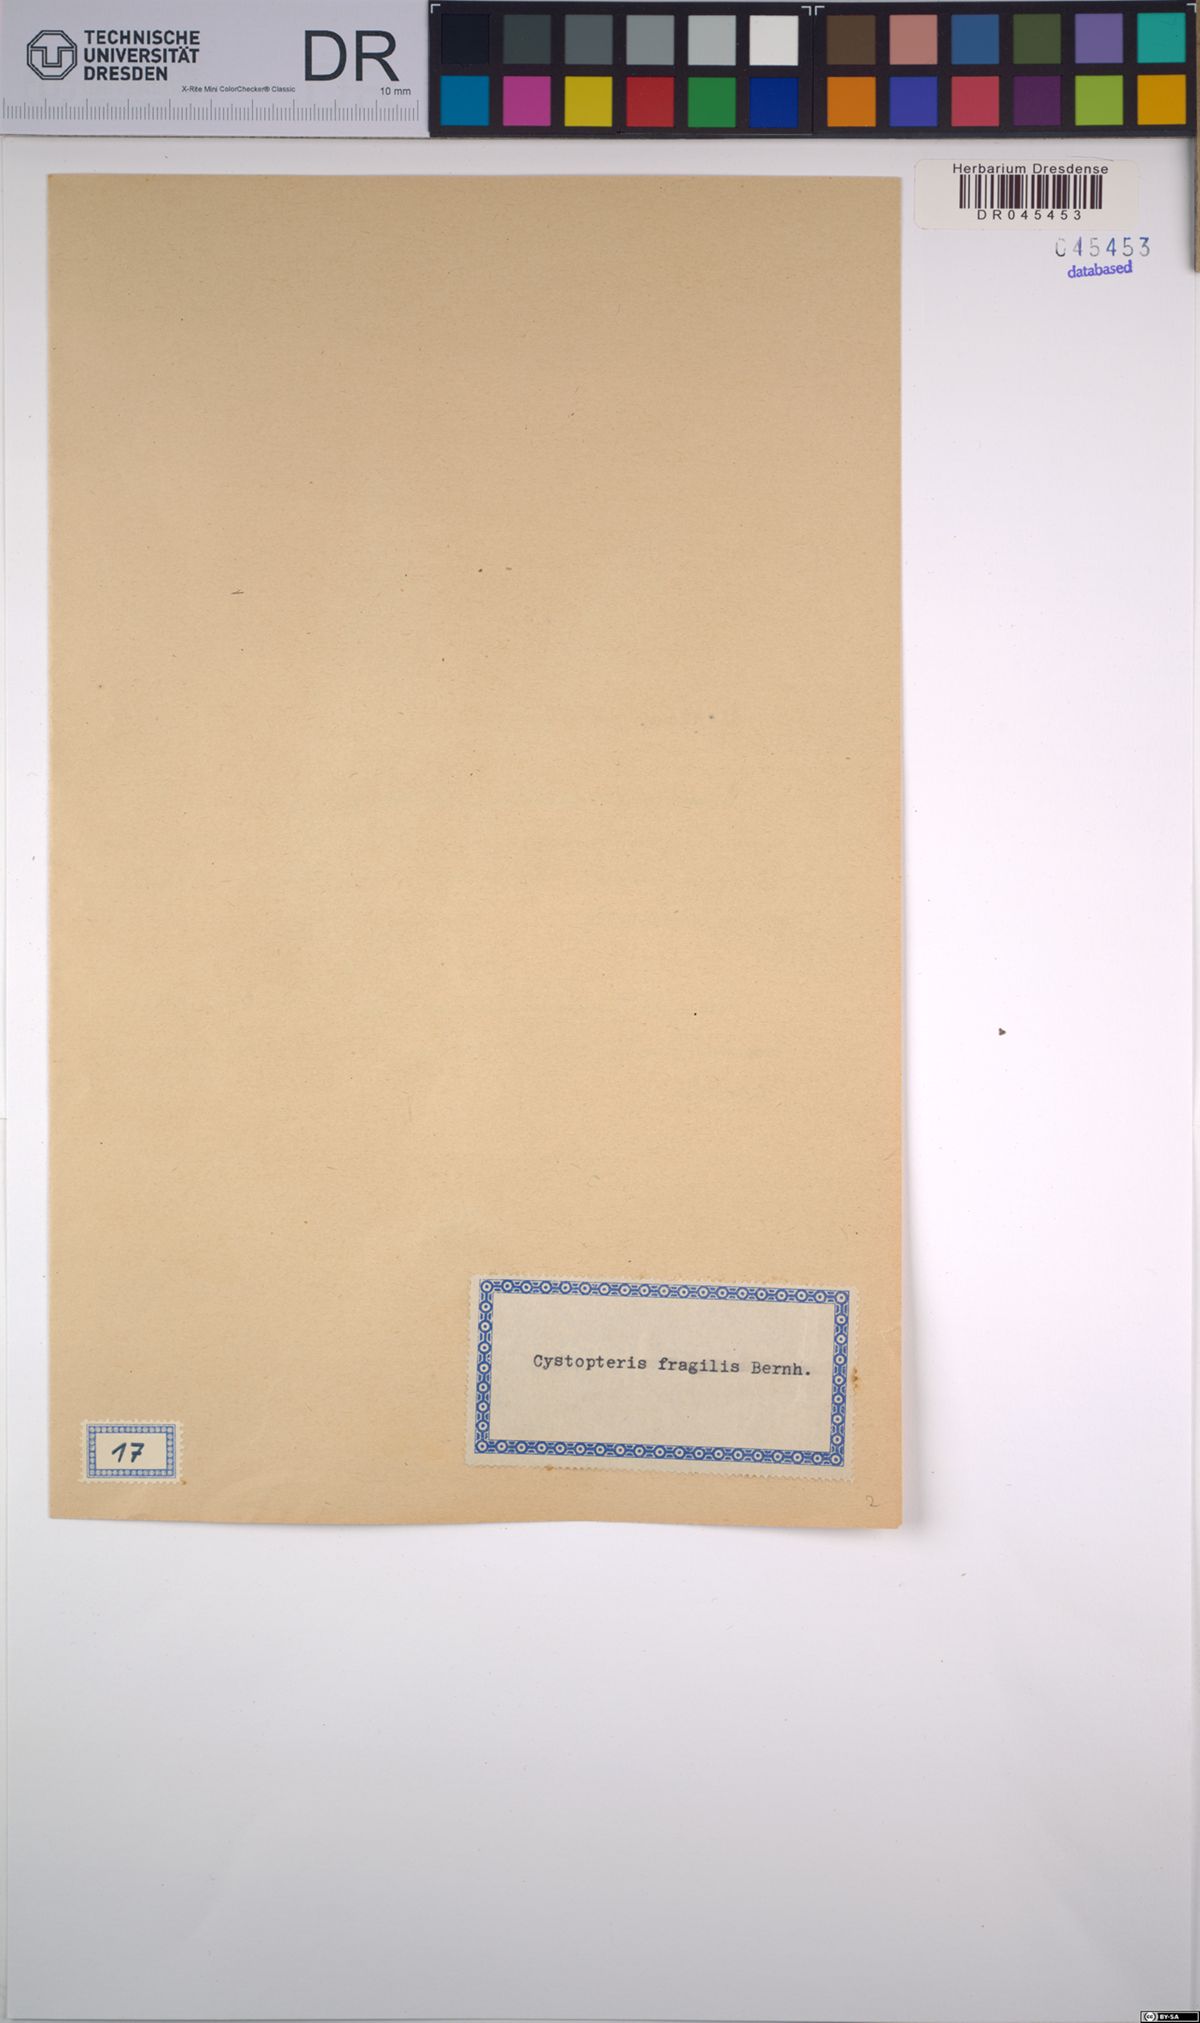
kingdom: Plantae
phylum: Tracheophyta
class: Polypodiopsida
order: Polypodiales
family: Cystopteridaceae
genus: Cystopteris
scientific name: Cystopteris fragilis
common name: Brittle bladder fern
